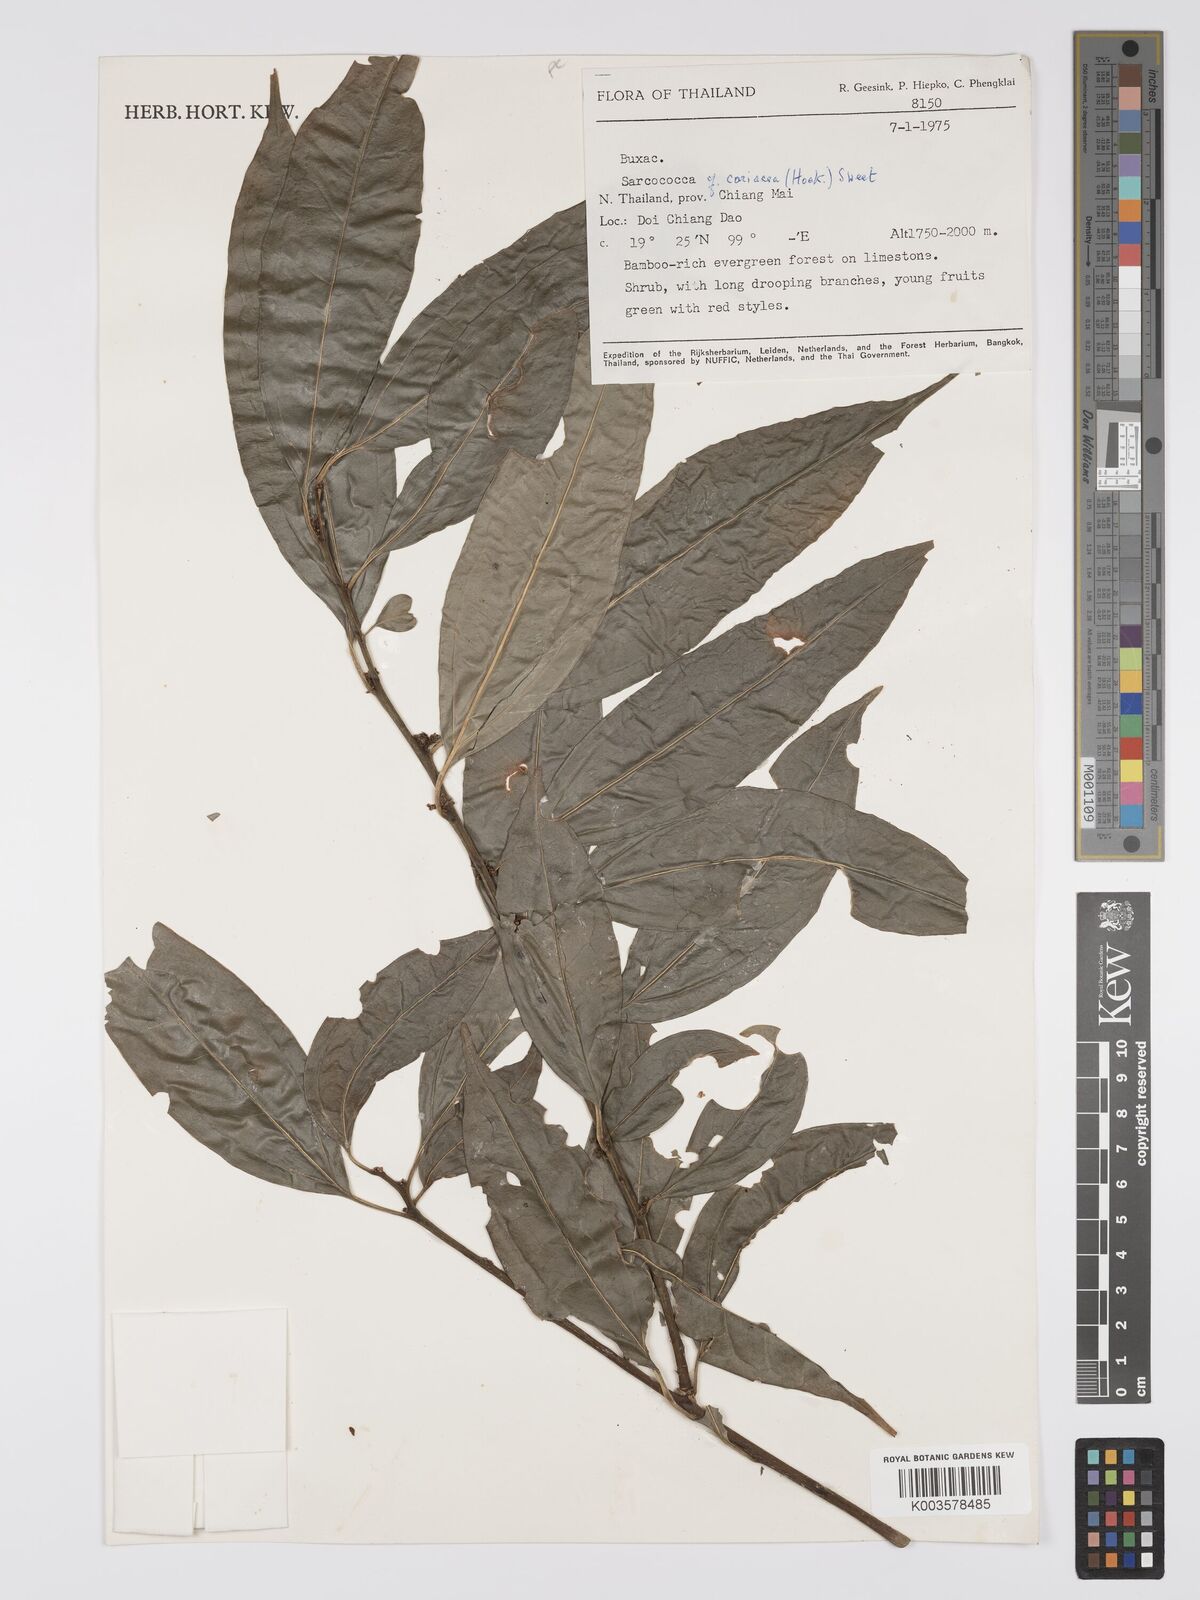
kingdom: Plantae
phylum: Tracheophyta
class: Magnoliopsida
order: Buxales
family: Buxaceae
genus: Sarcococca
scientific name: Sarcococca coriacea
